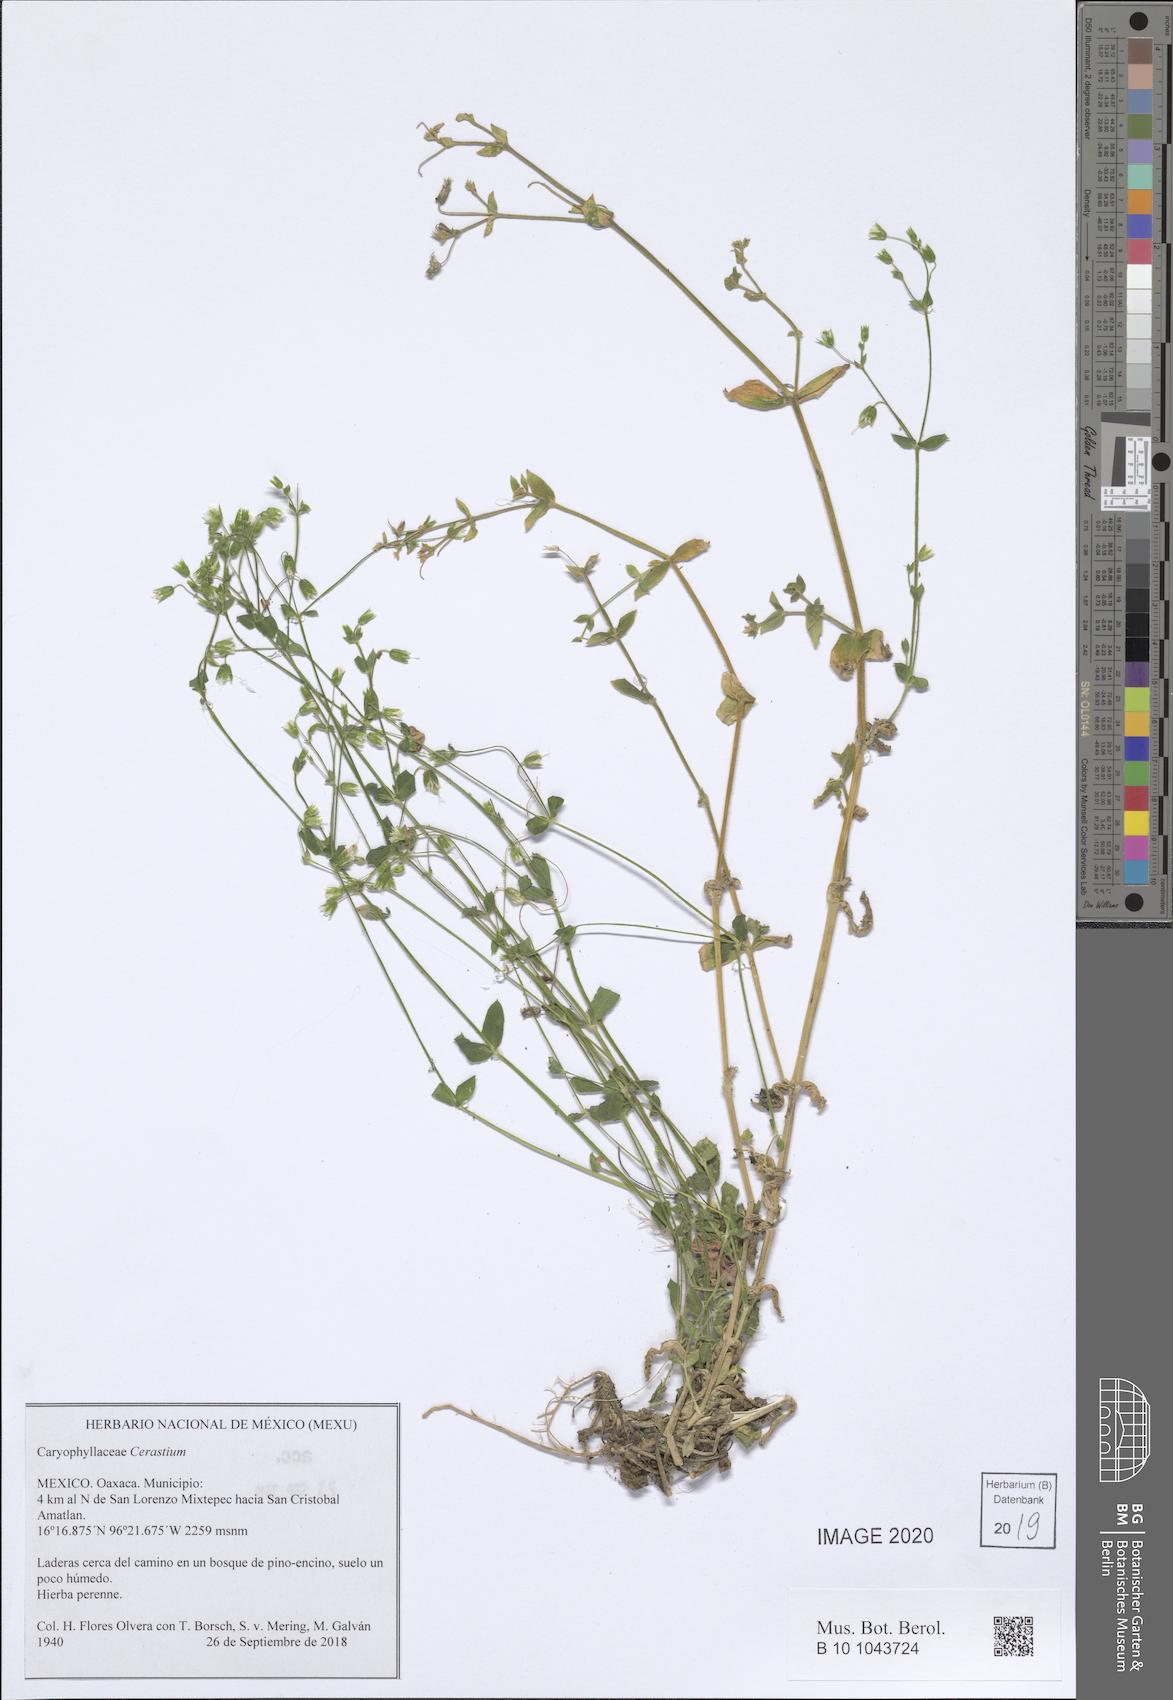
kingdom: Plantae
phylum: Tracheophyta
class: Magnoliopsida
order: Caryophyllales
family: Caryophyllaceae
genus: Cerastium
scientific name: Cerastium
